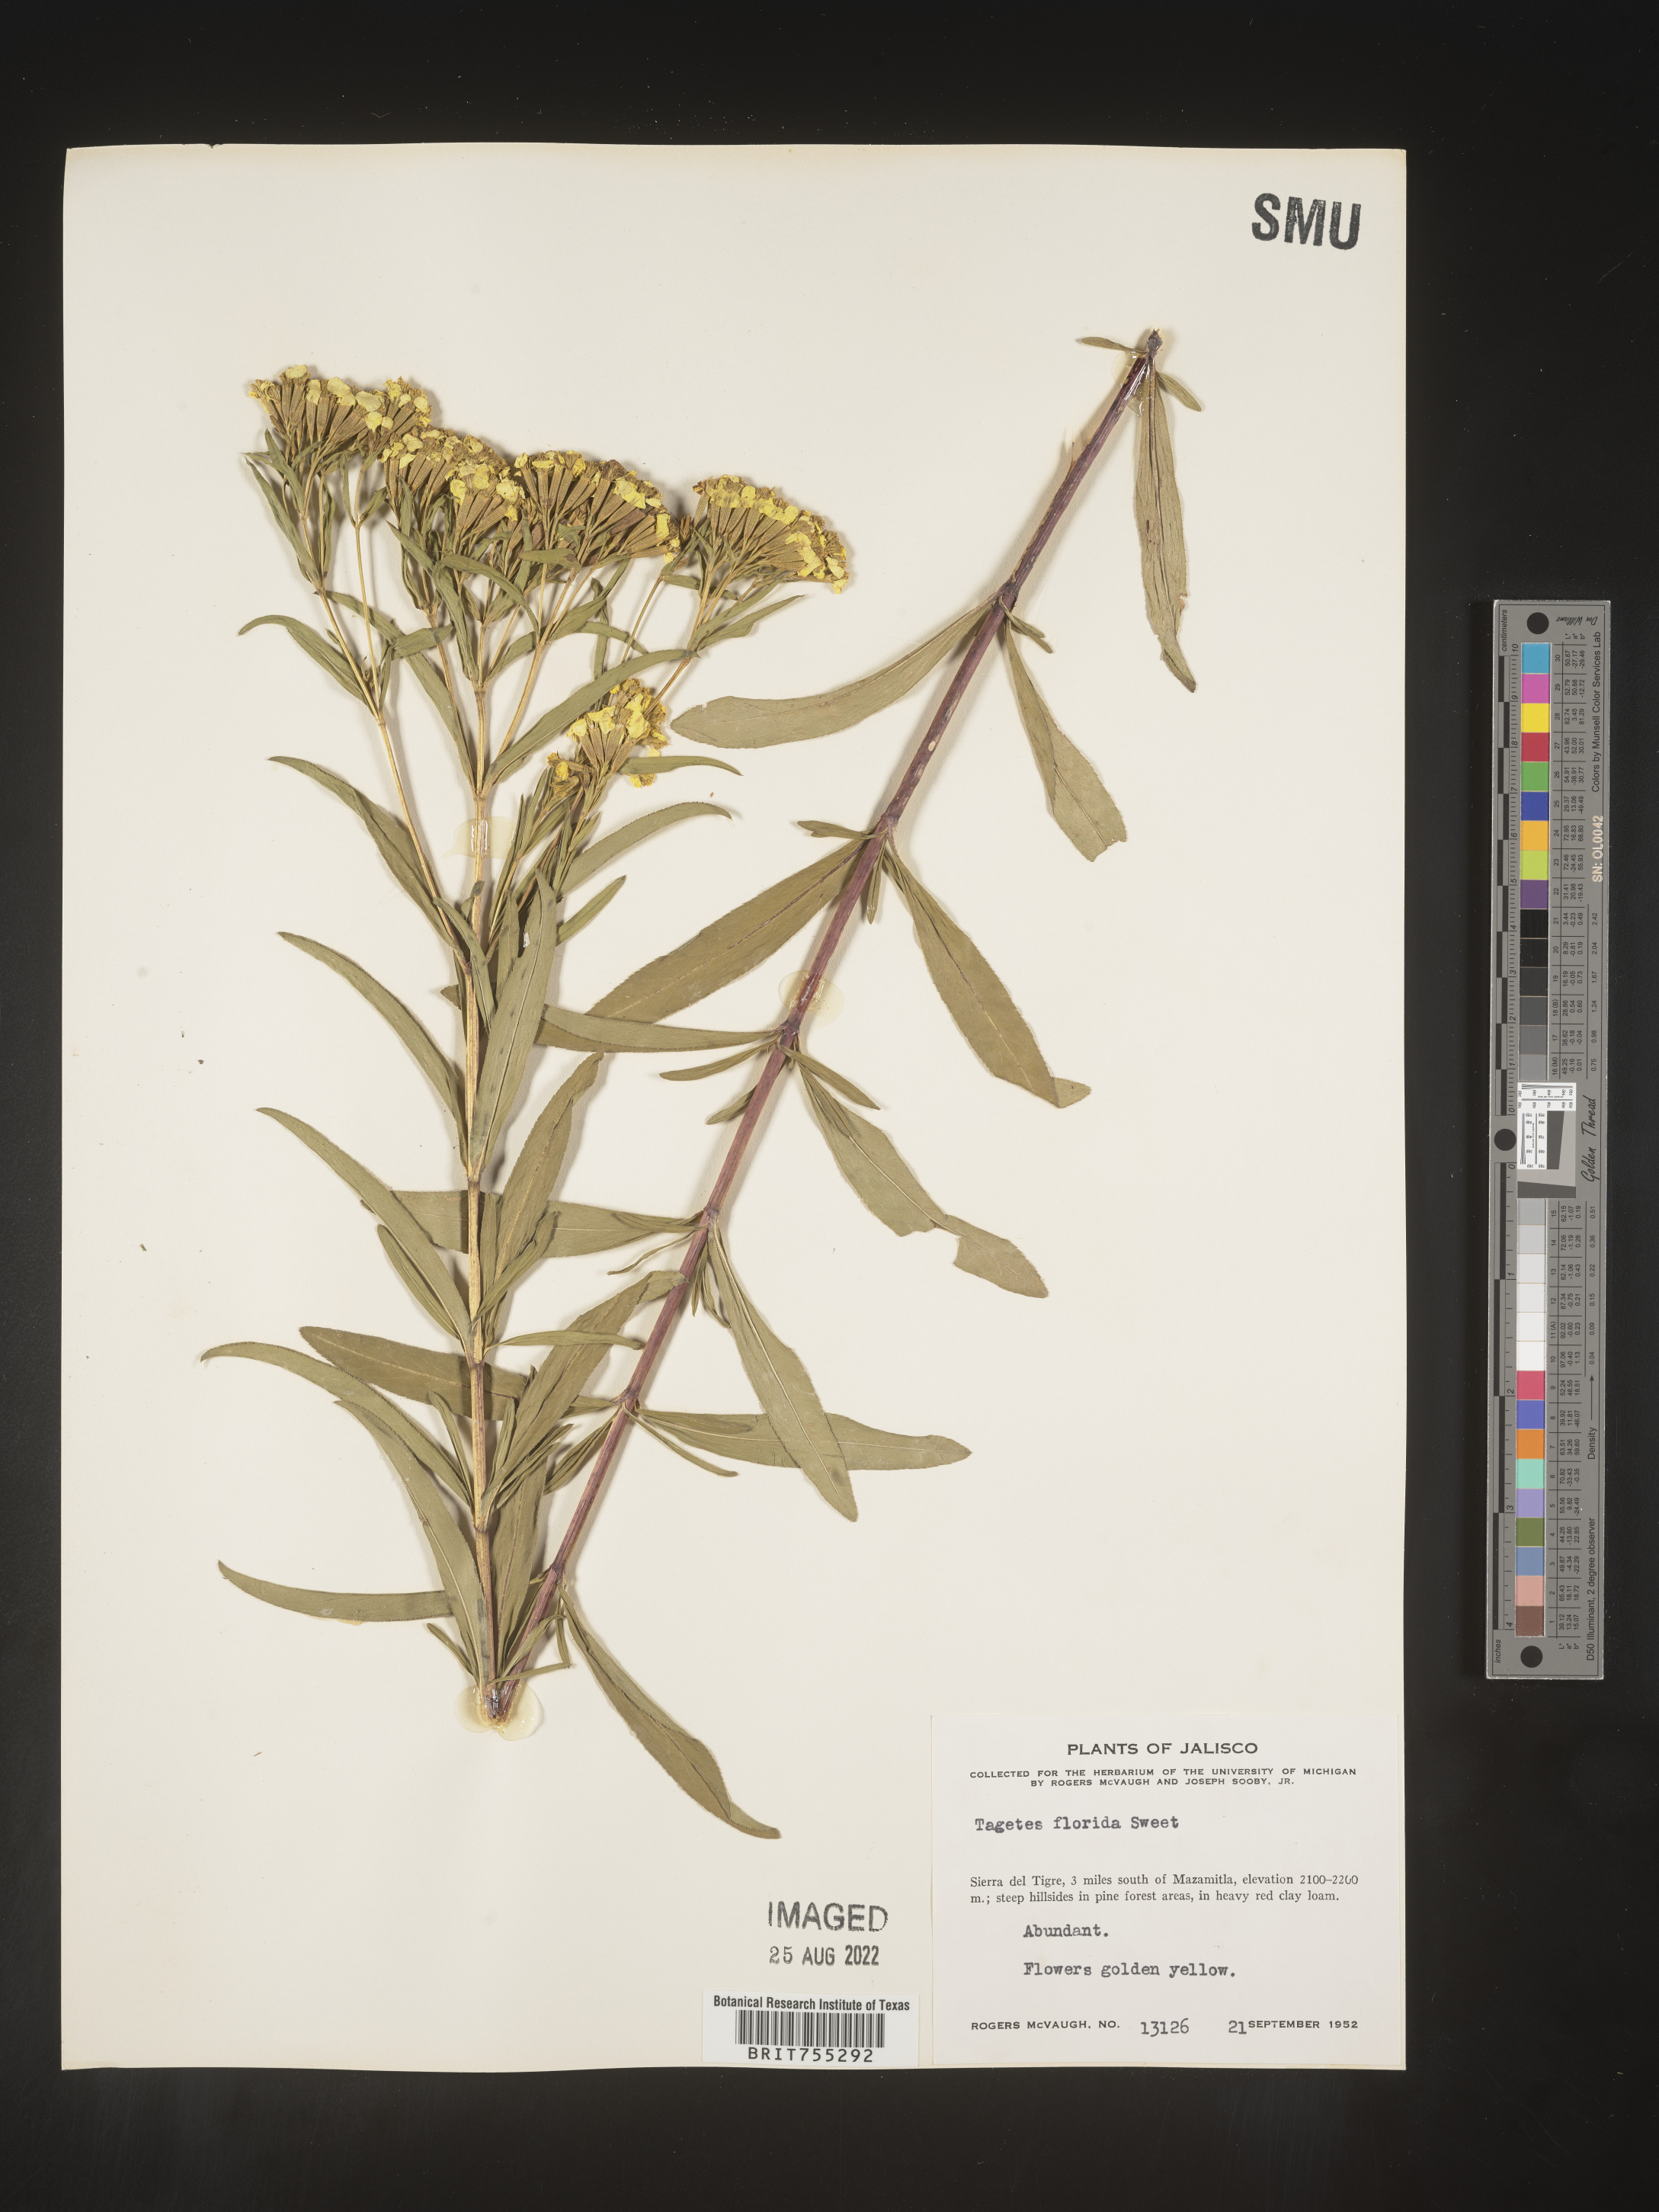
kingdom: Plantae
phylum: Tracheophyta
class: Magnoliopsida
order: Asterales
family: Asteraceae
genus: Tagetes
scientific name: Tagetes
